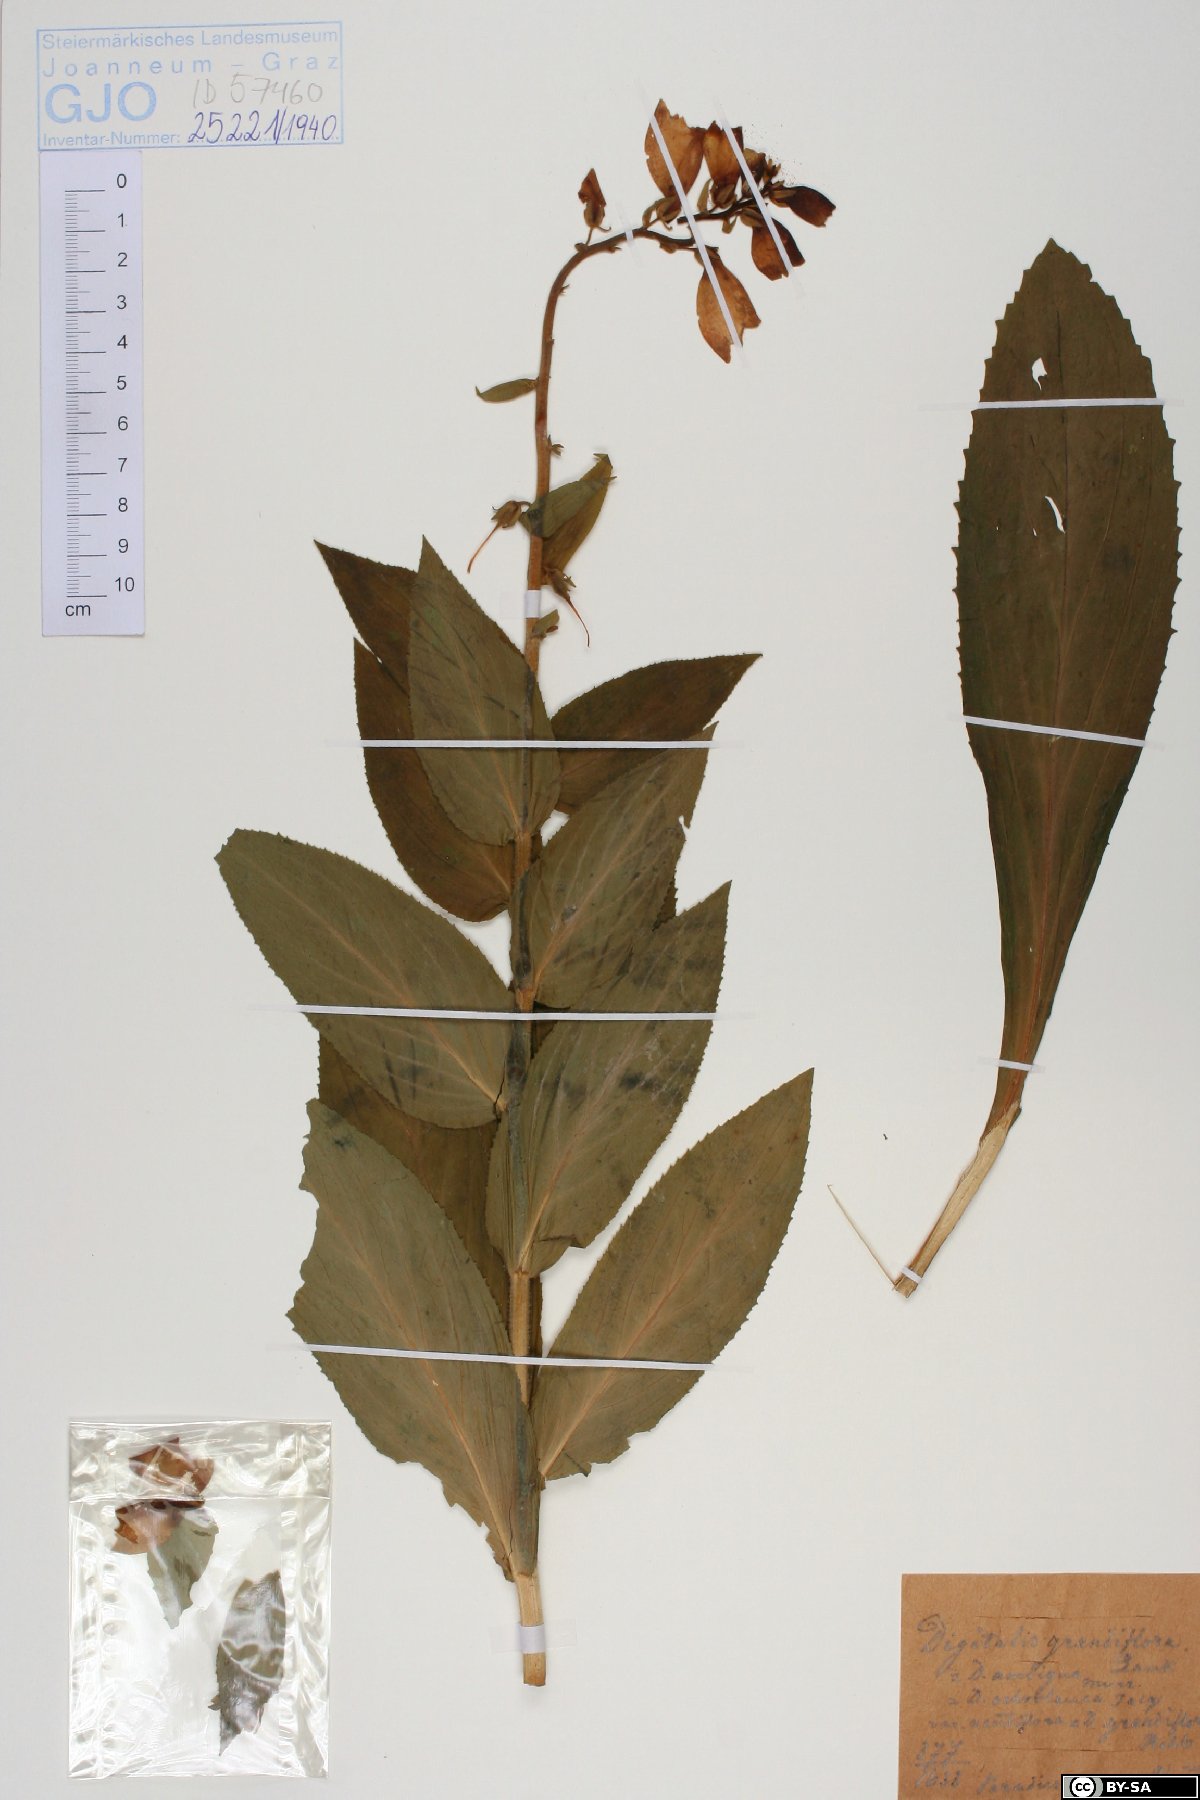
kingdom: Plantae
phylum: Tracheophyta
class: Magnoliopsida
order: Lamiales
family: Plantaginaceae
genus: Digitalis
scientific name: Digitalis grandiflora
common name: Yellow foxglove
